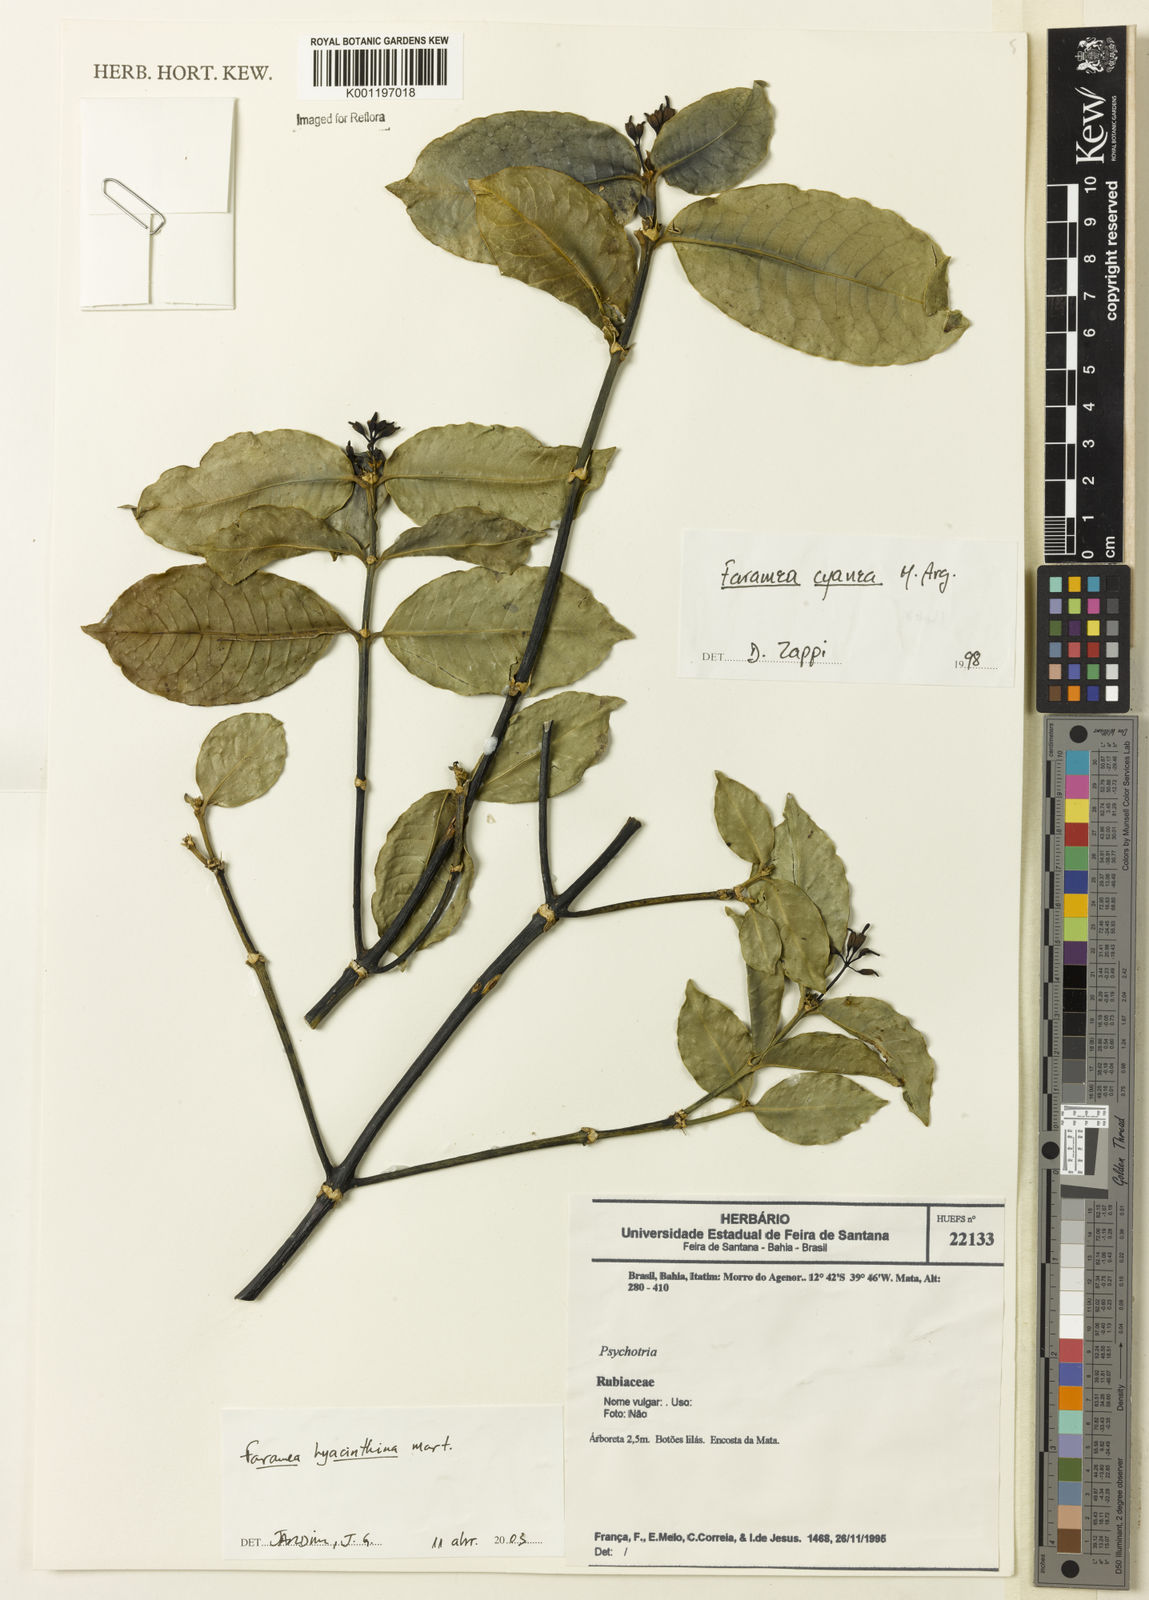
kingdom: Plantae
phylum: Tracheophyta
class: Magnoliopsida
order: Gentianales
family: Rubiaceae
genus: Faramea
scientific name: Faramea hyacinthina
